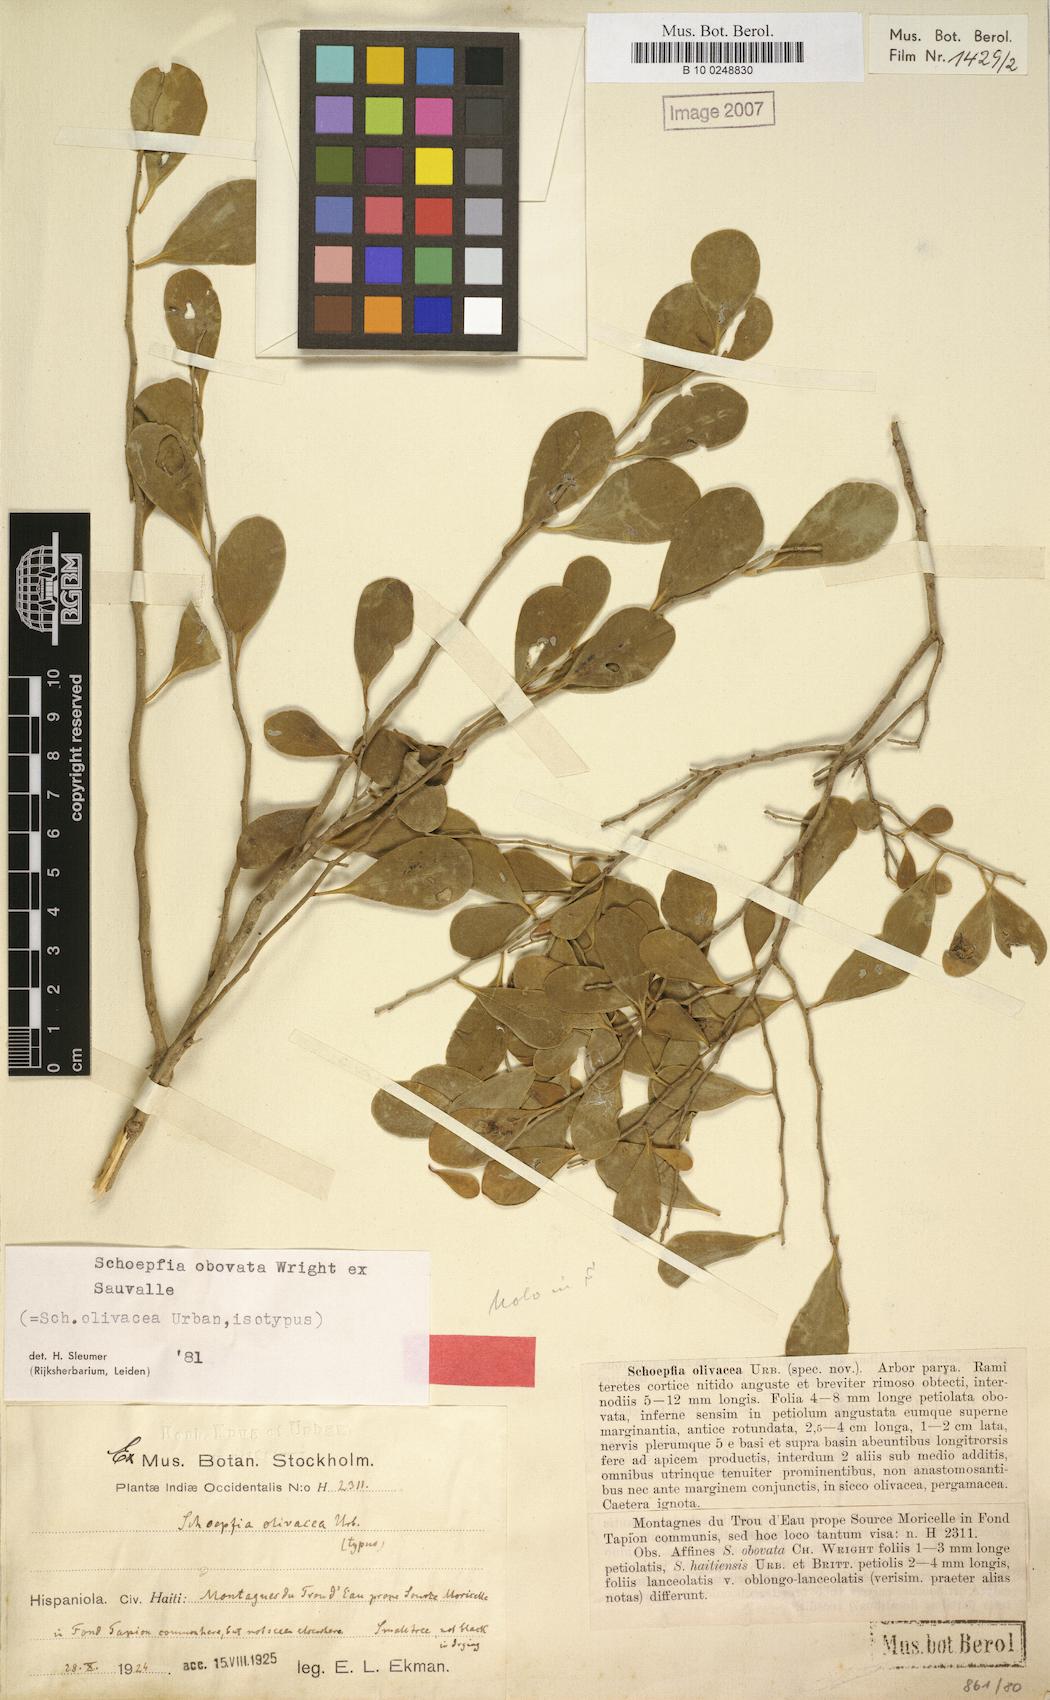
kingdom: Plantae
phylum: Tracheophyta
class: Magnoliopsida
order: Santalales
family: Schoepfiaceae
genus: Schoepfia
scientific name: Schoepfia obovata
